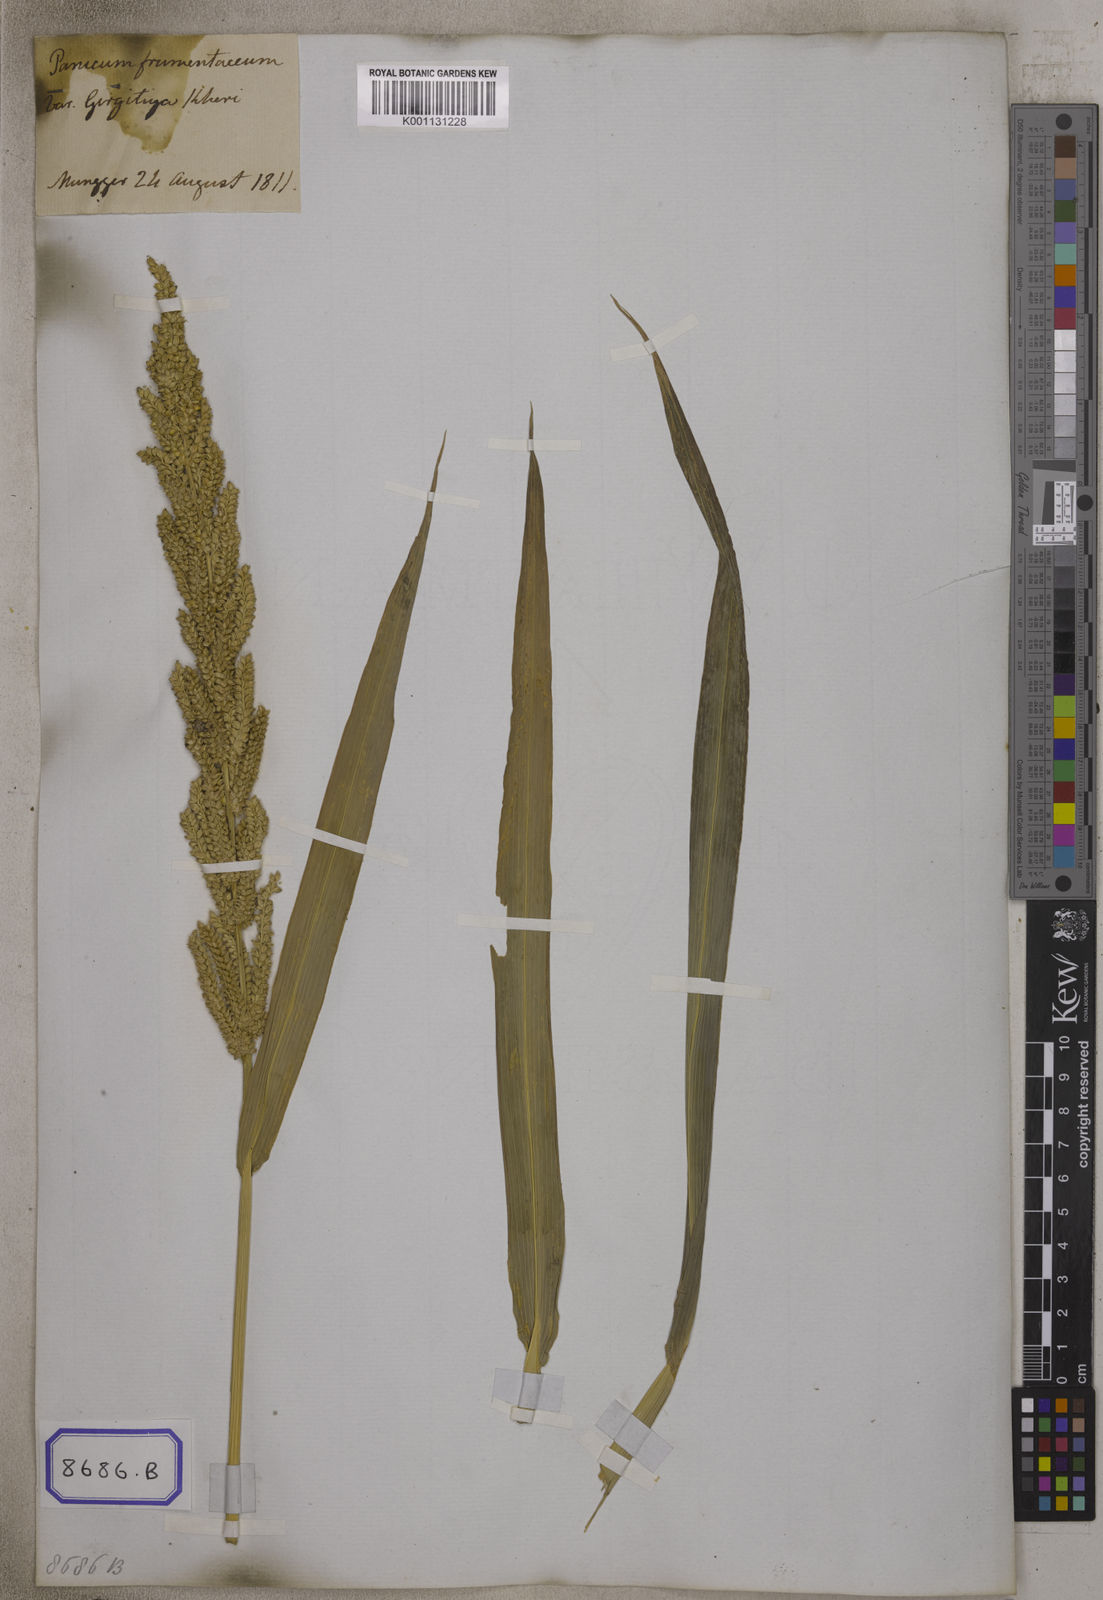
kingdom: Plantae
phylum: Tracheophyta
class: Liliopsida
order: Poales
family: Poaceae
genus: Panicum
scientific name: Panicum
